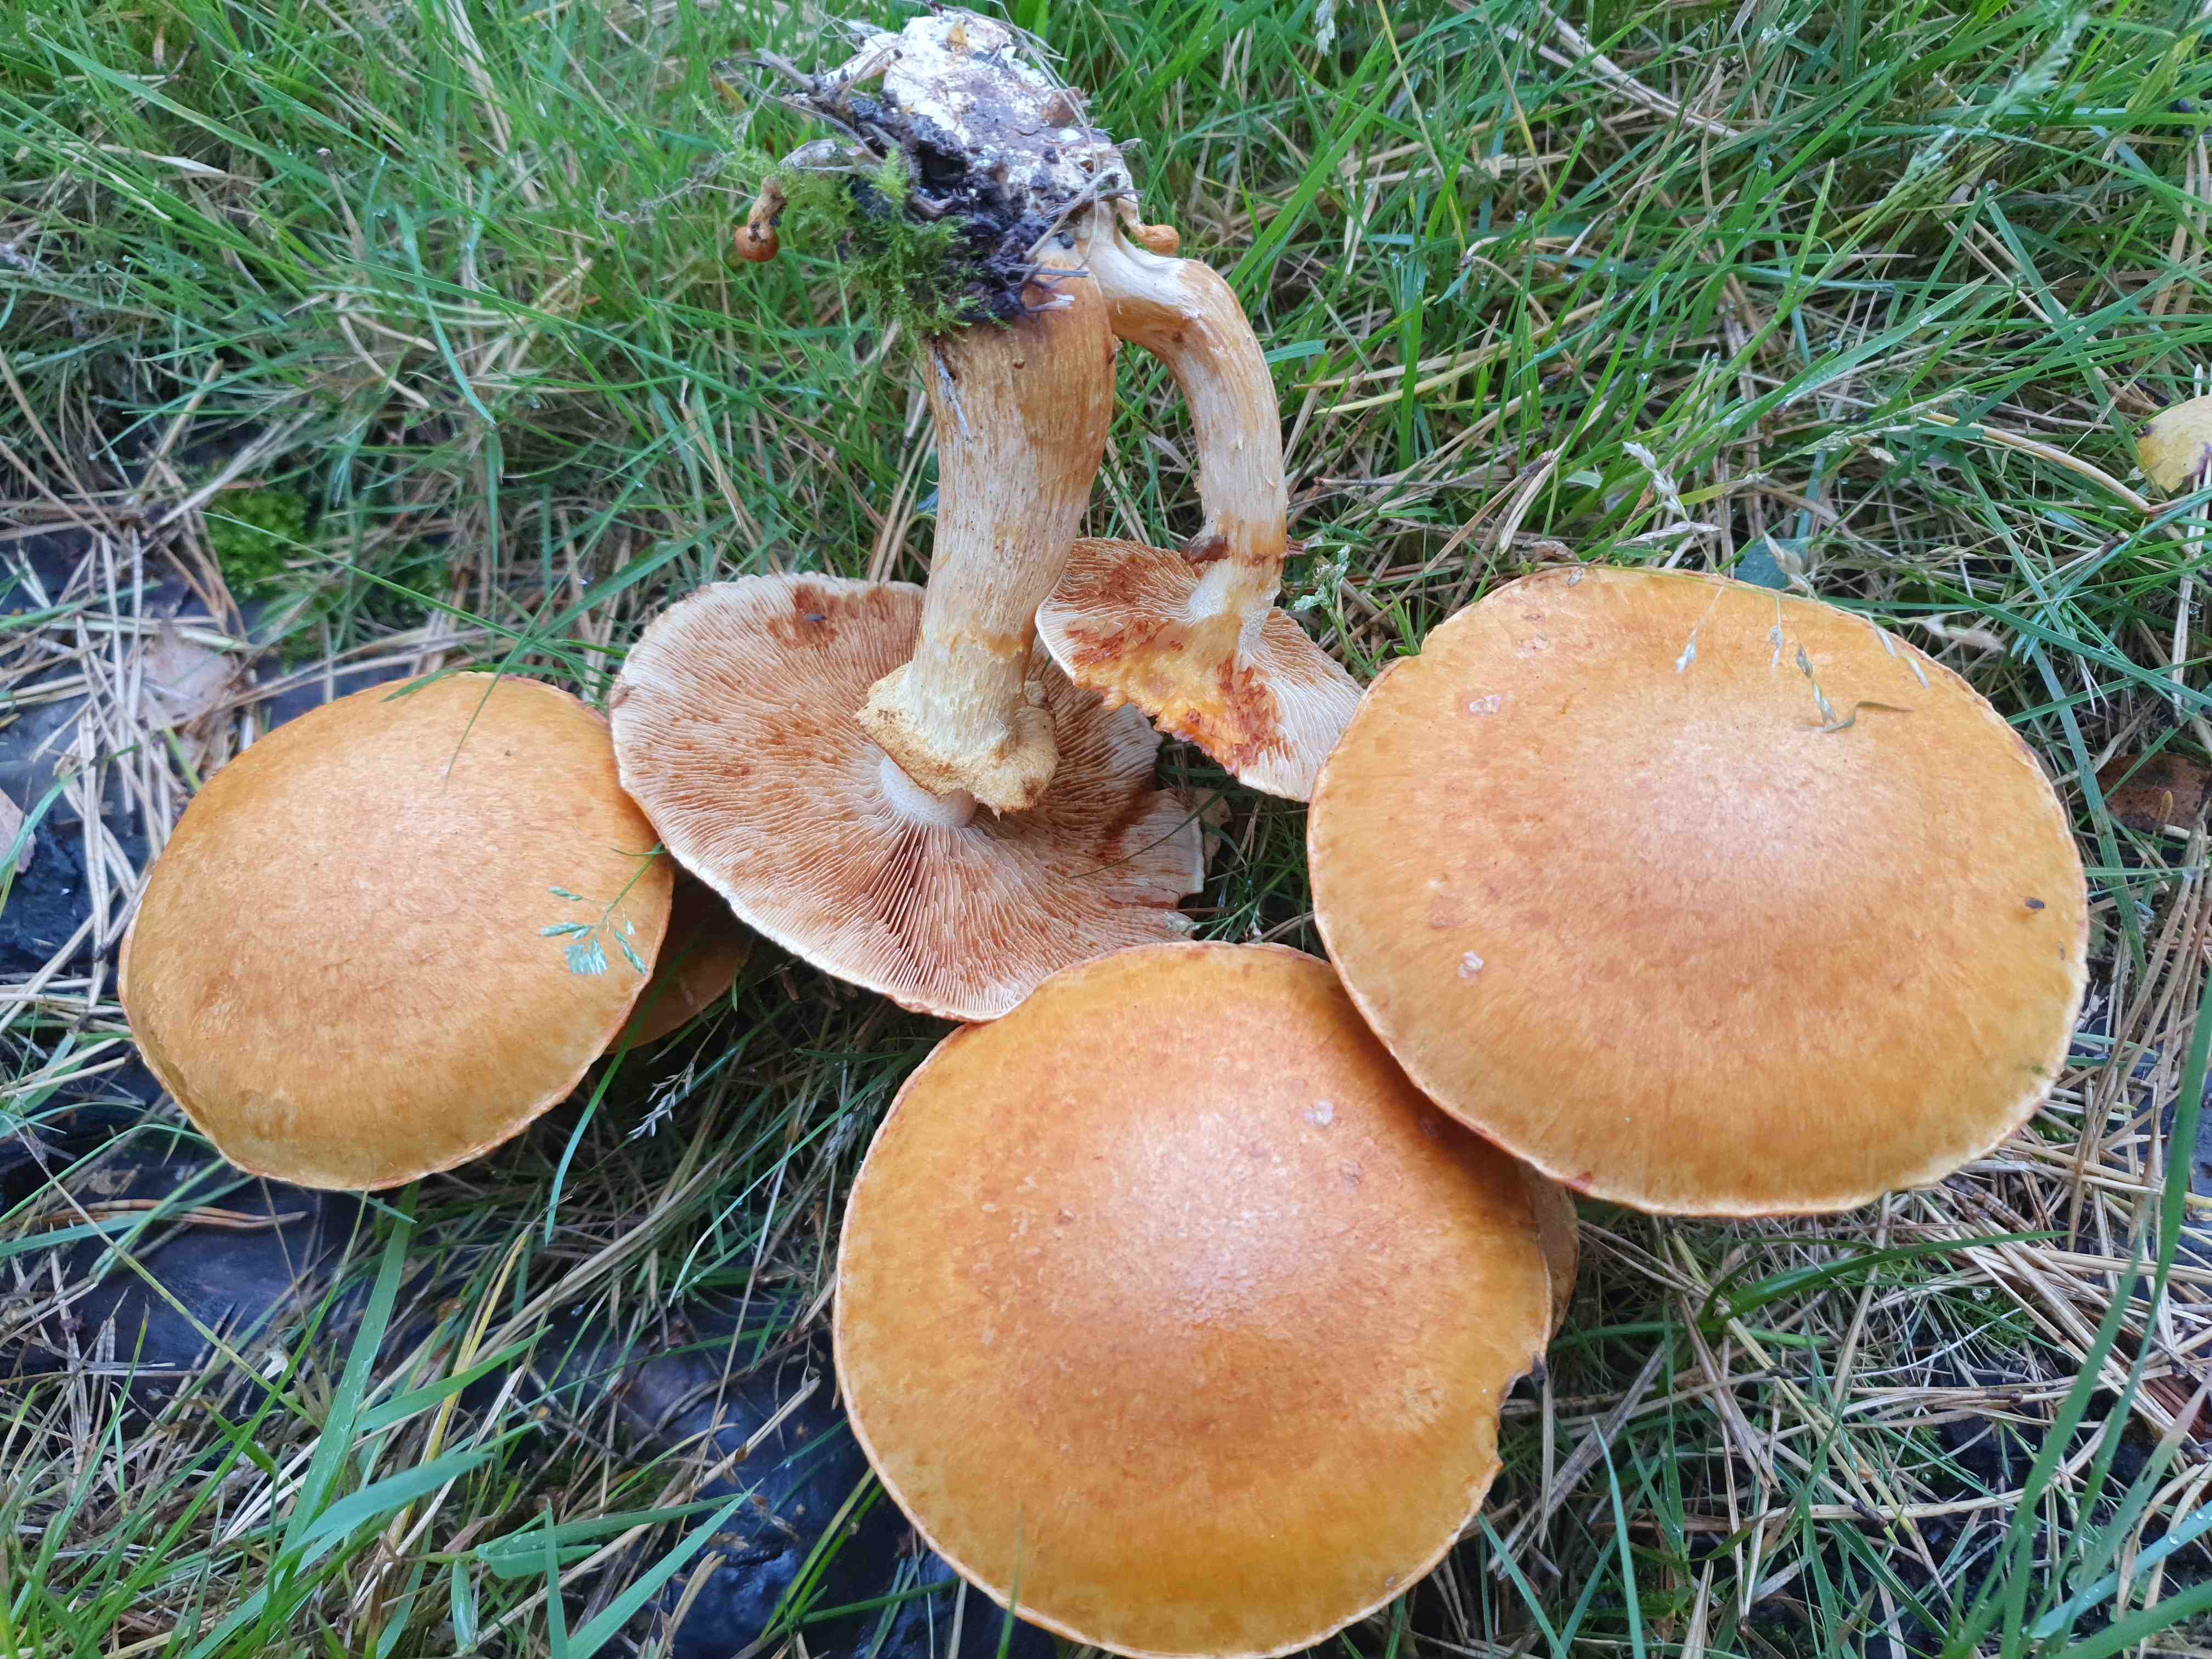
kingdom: Fungi
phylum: Basidiomycota
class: Agaricomycetes
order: Agaricales
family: Hymenogastraceae
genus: Gymnopilus
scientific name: Gymnopilus spectabilis
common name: fibret flammehat
